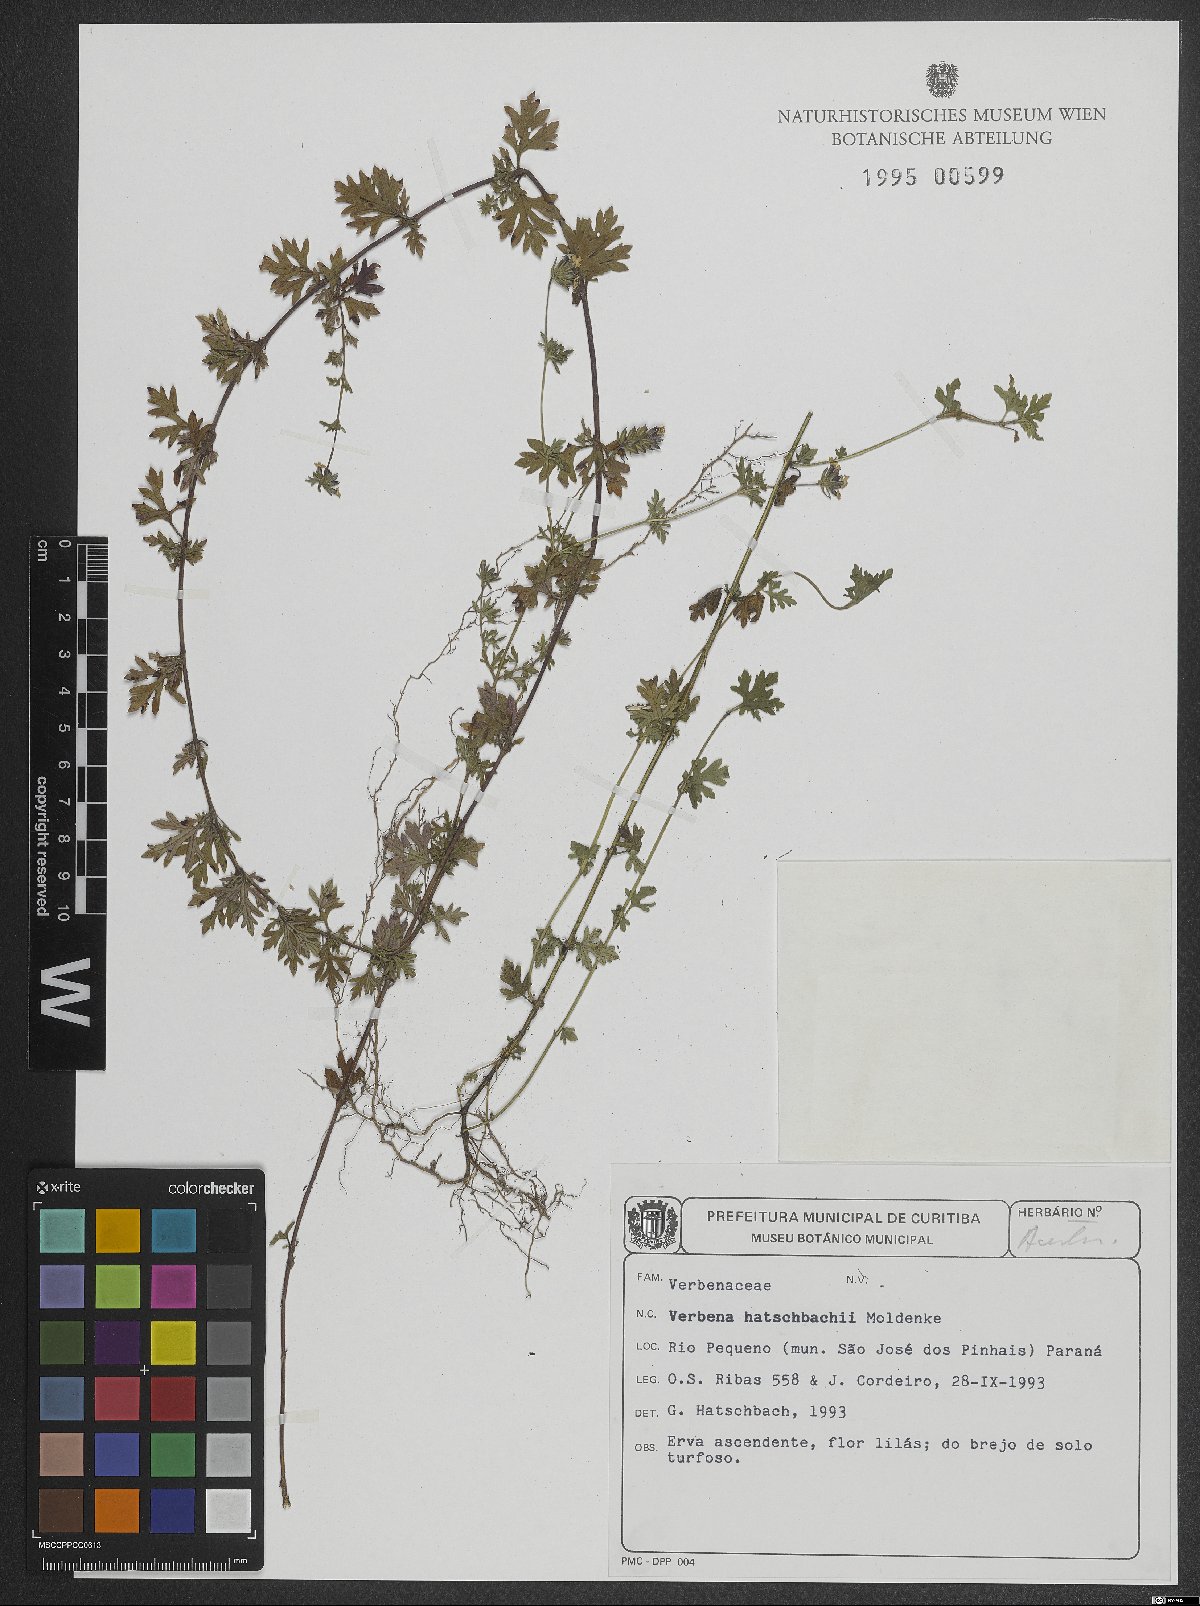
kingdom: Plantae
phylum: Tracheophyta
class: Magnoliopsida
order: Lamiales
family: Verbenaceae
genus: Verbena
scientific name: Verbena hatschbachii
